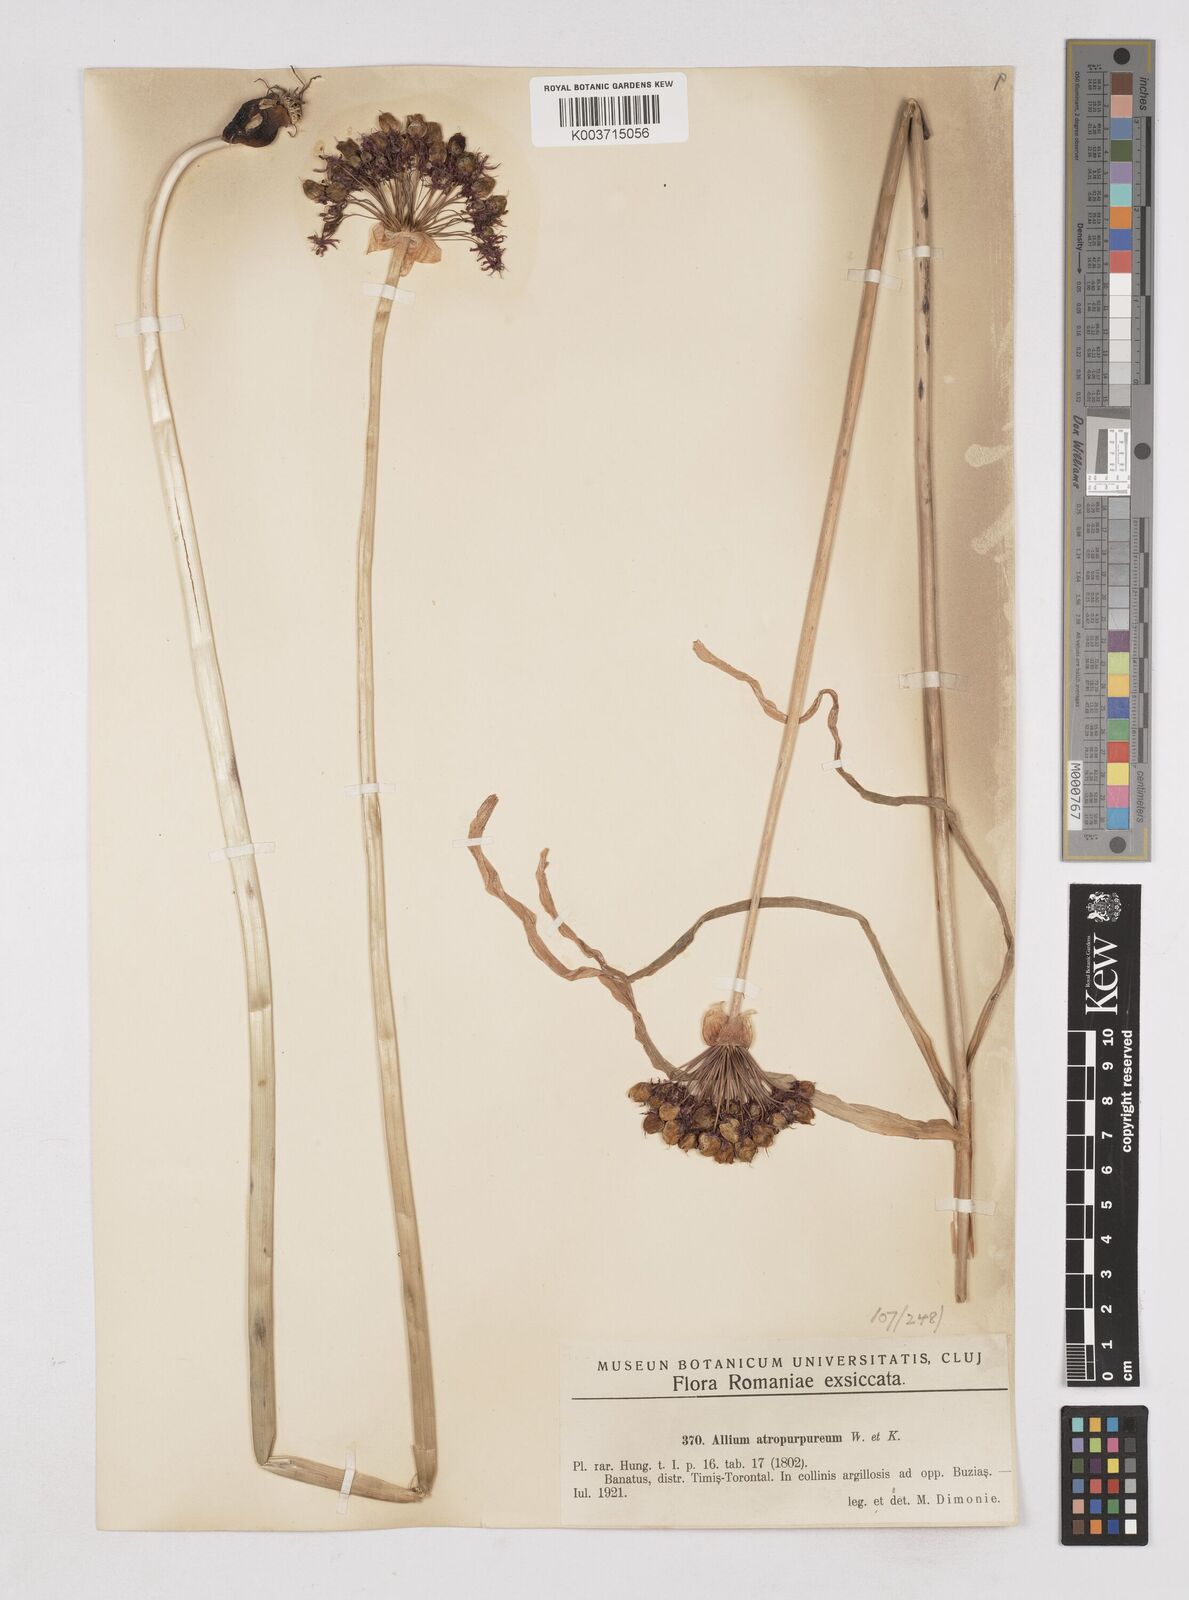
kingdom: Plantae
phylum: Tracheophyta
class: Liliopsida
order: Asparagales
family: Amaryllidaceae
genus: Allium
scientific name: Allium atropurpureum
